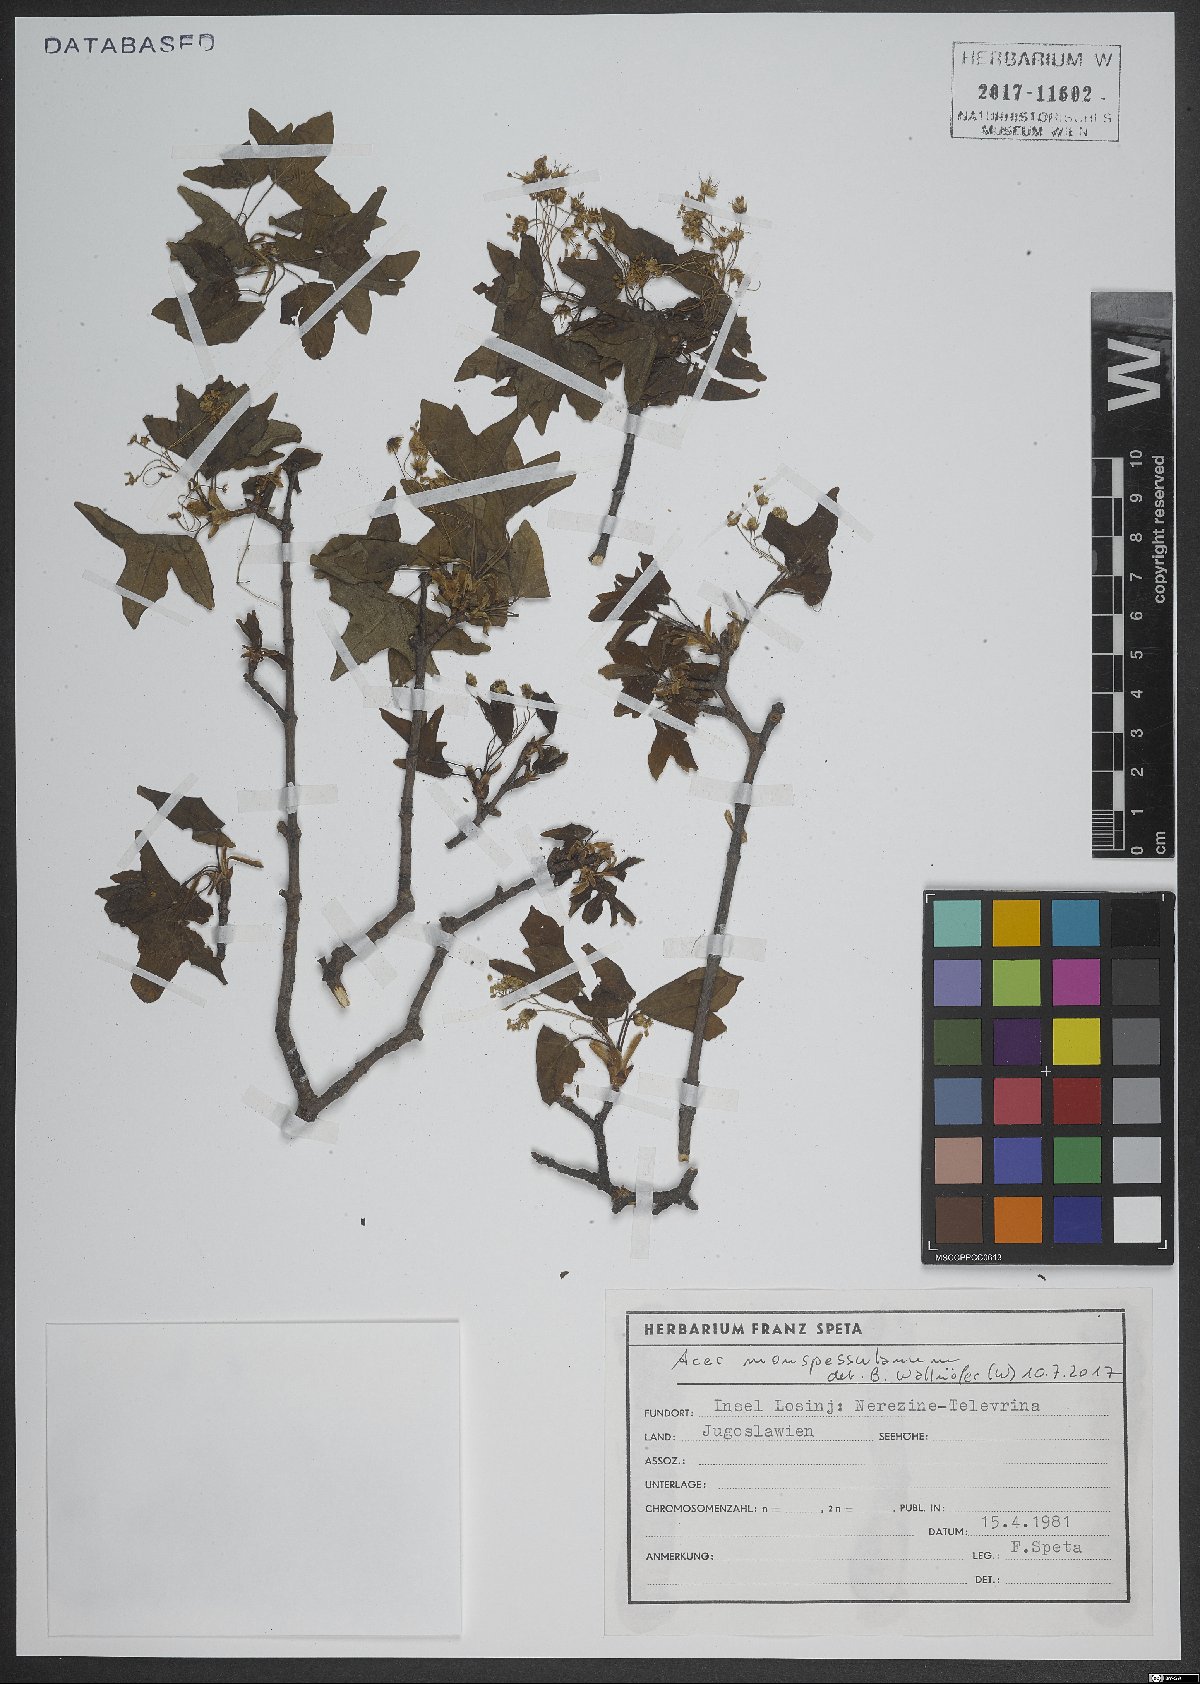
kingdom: Plantae
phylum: Tracheophyta
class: Magnoliopsida
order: Sapindales
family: Sapindaceae
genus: Acer
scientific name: Acer monspessulanum
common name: Montpellier maple
